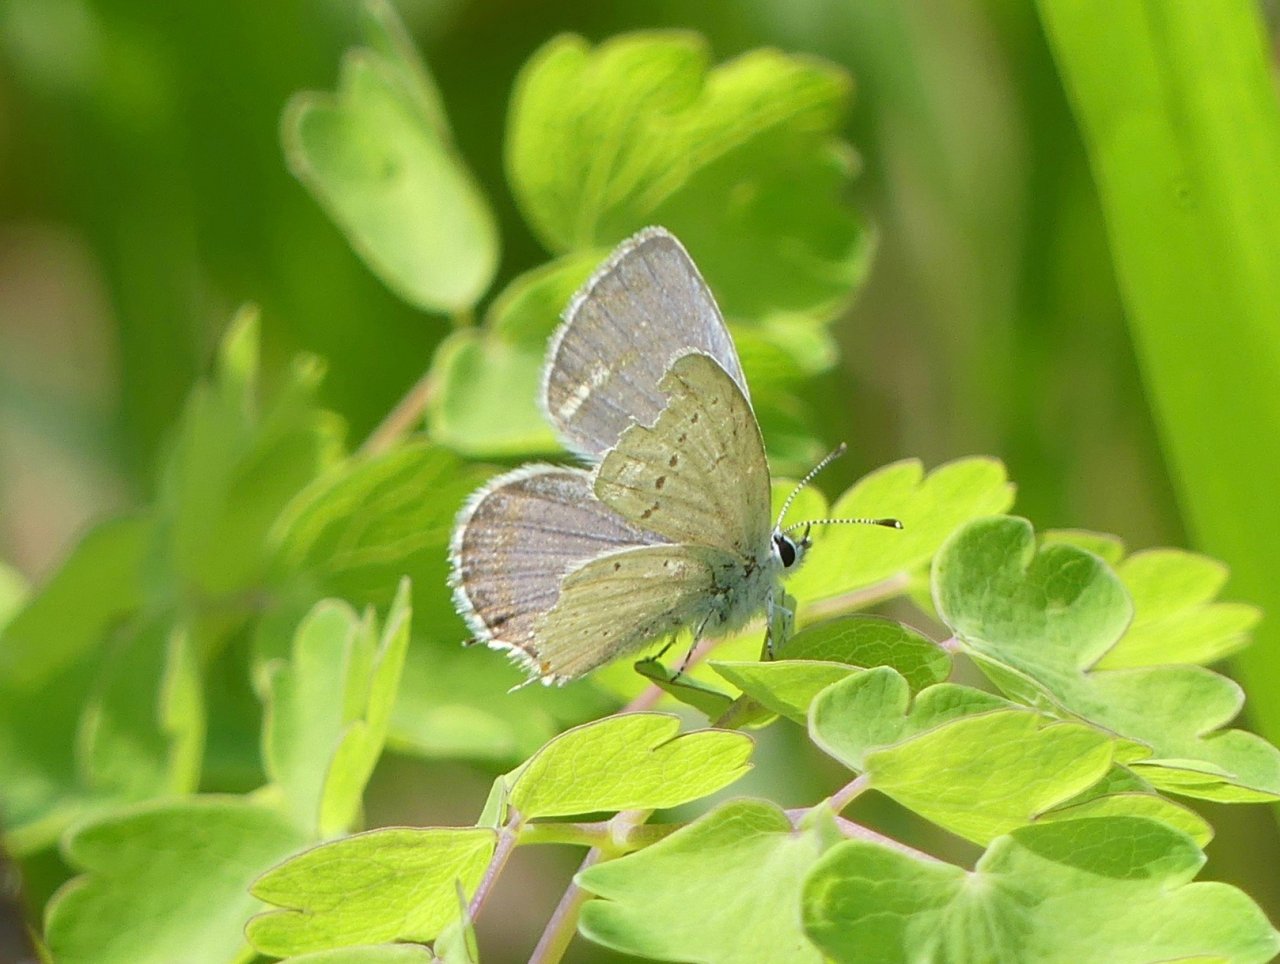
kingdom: Animalia
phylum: Arthropoda
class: Insecta
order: Lepidoptera
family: Lycaenidae
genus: Elkalyce
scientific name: Elkalyce amyntula
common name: Western Tailed-Blue
